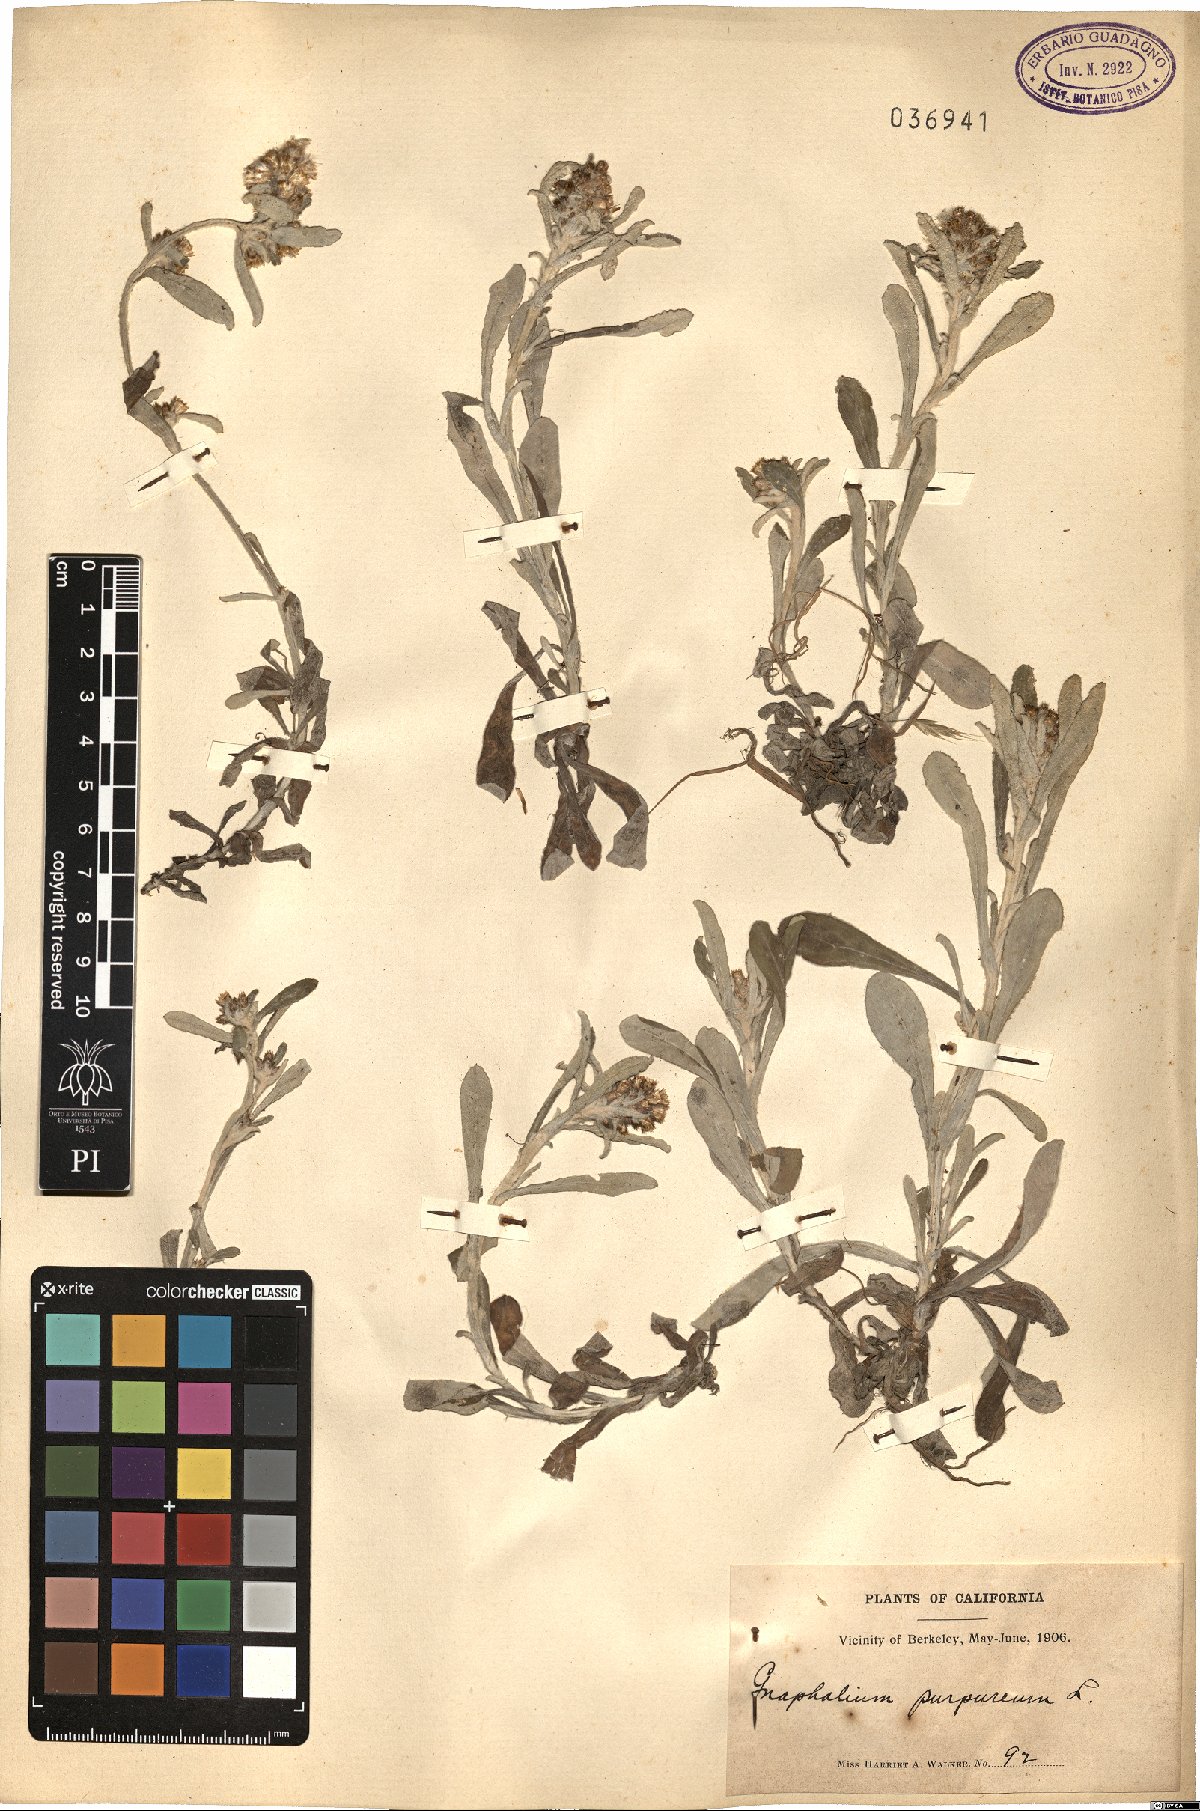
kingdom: Plantae
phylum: Tracheophyta
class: Magnoliopsida
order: Asterales
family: Asteraceae
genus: Gamochaeta
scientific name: Gamochaeta purpurea
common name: Purple cudweed
